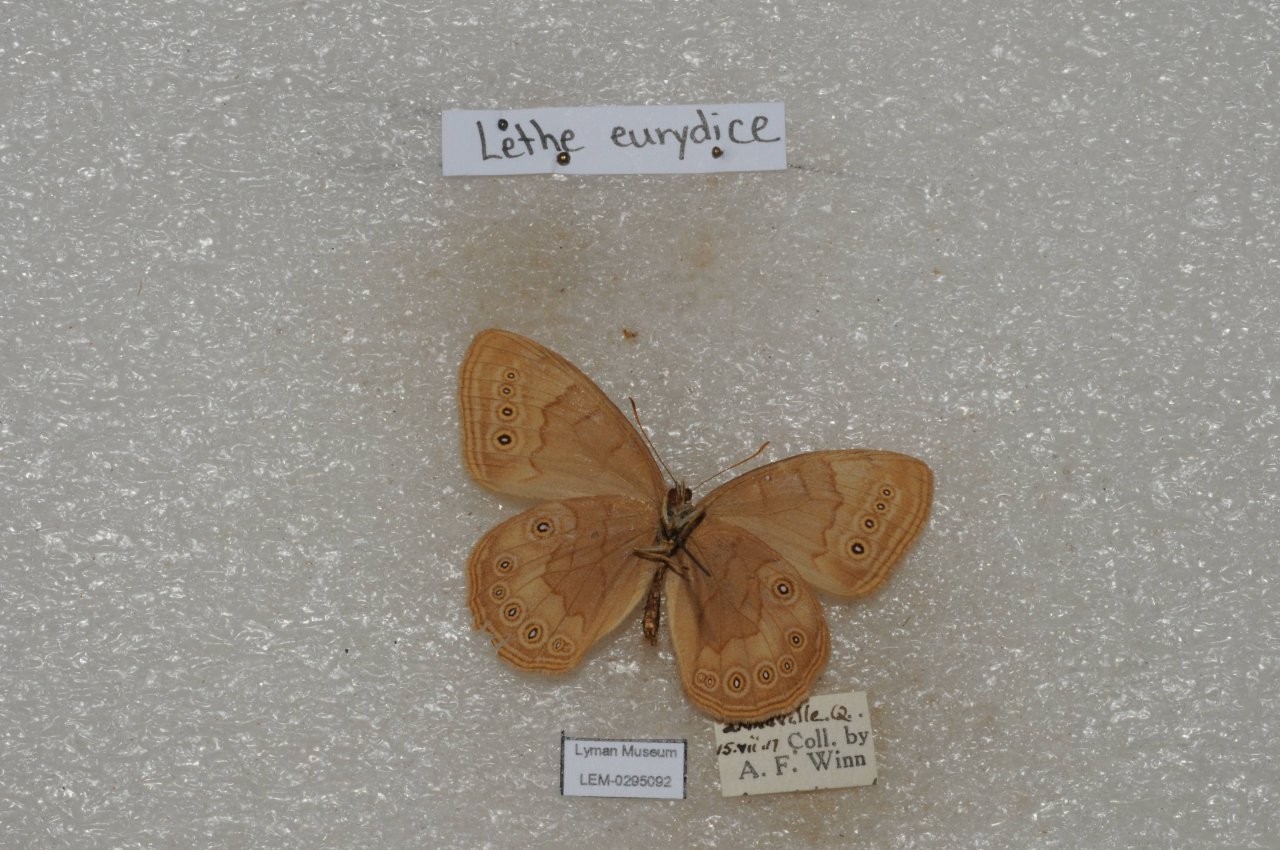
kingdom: Animalia
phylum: Arthropoda
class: Insecta
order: Lepidoptera
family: Nymphalidae
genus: Lethe
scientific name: Lethe eurydice
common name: Eyed Brown
